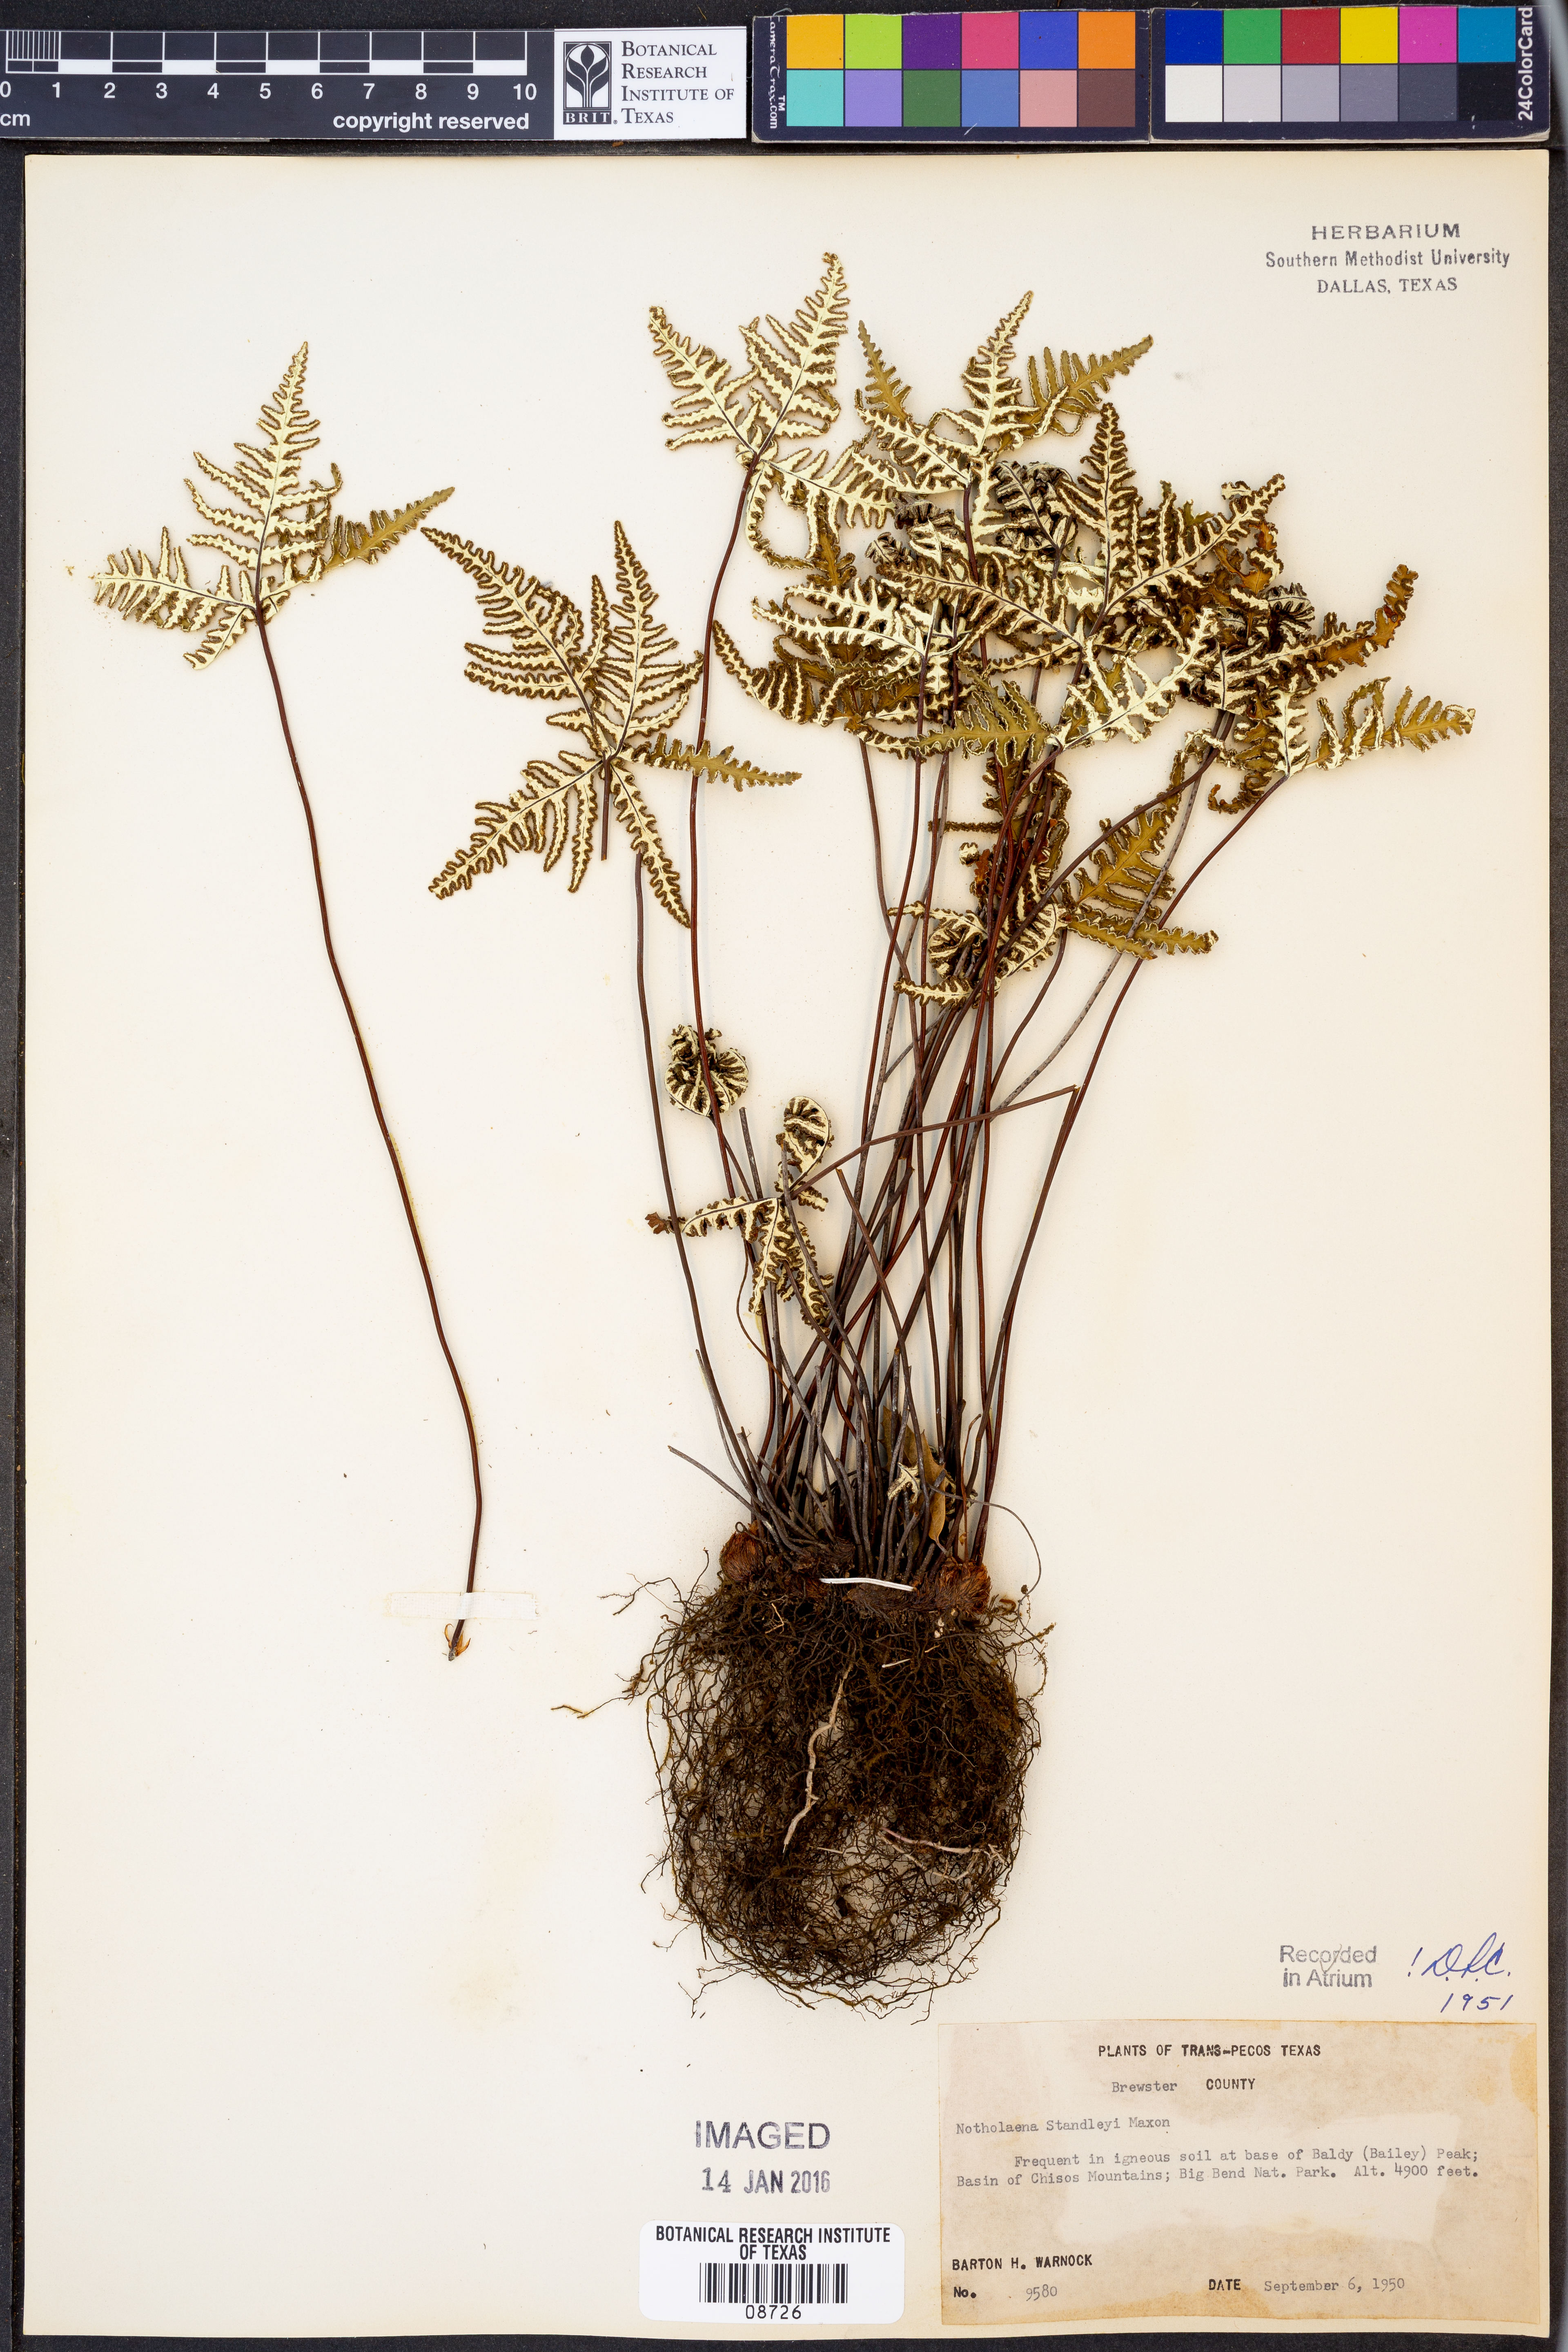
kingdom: Plantae
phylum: Tracheophyta
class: Polypodiopsida
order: Polypodiales
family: Pteridaceae
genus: Notholaena
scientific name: Notholaena standleyi
